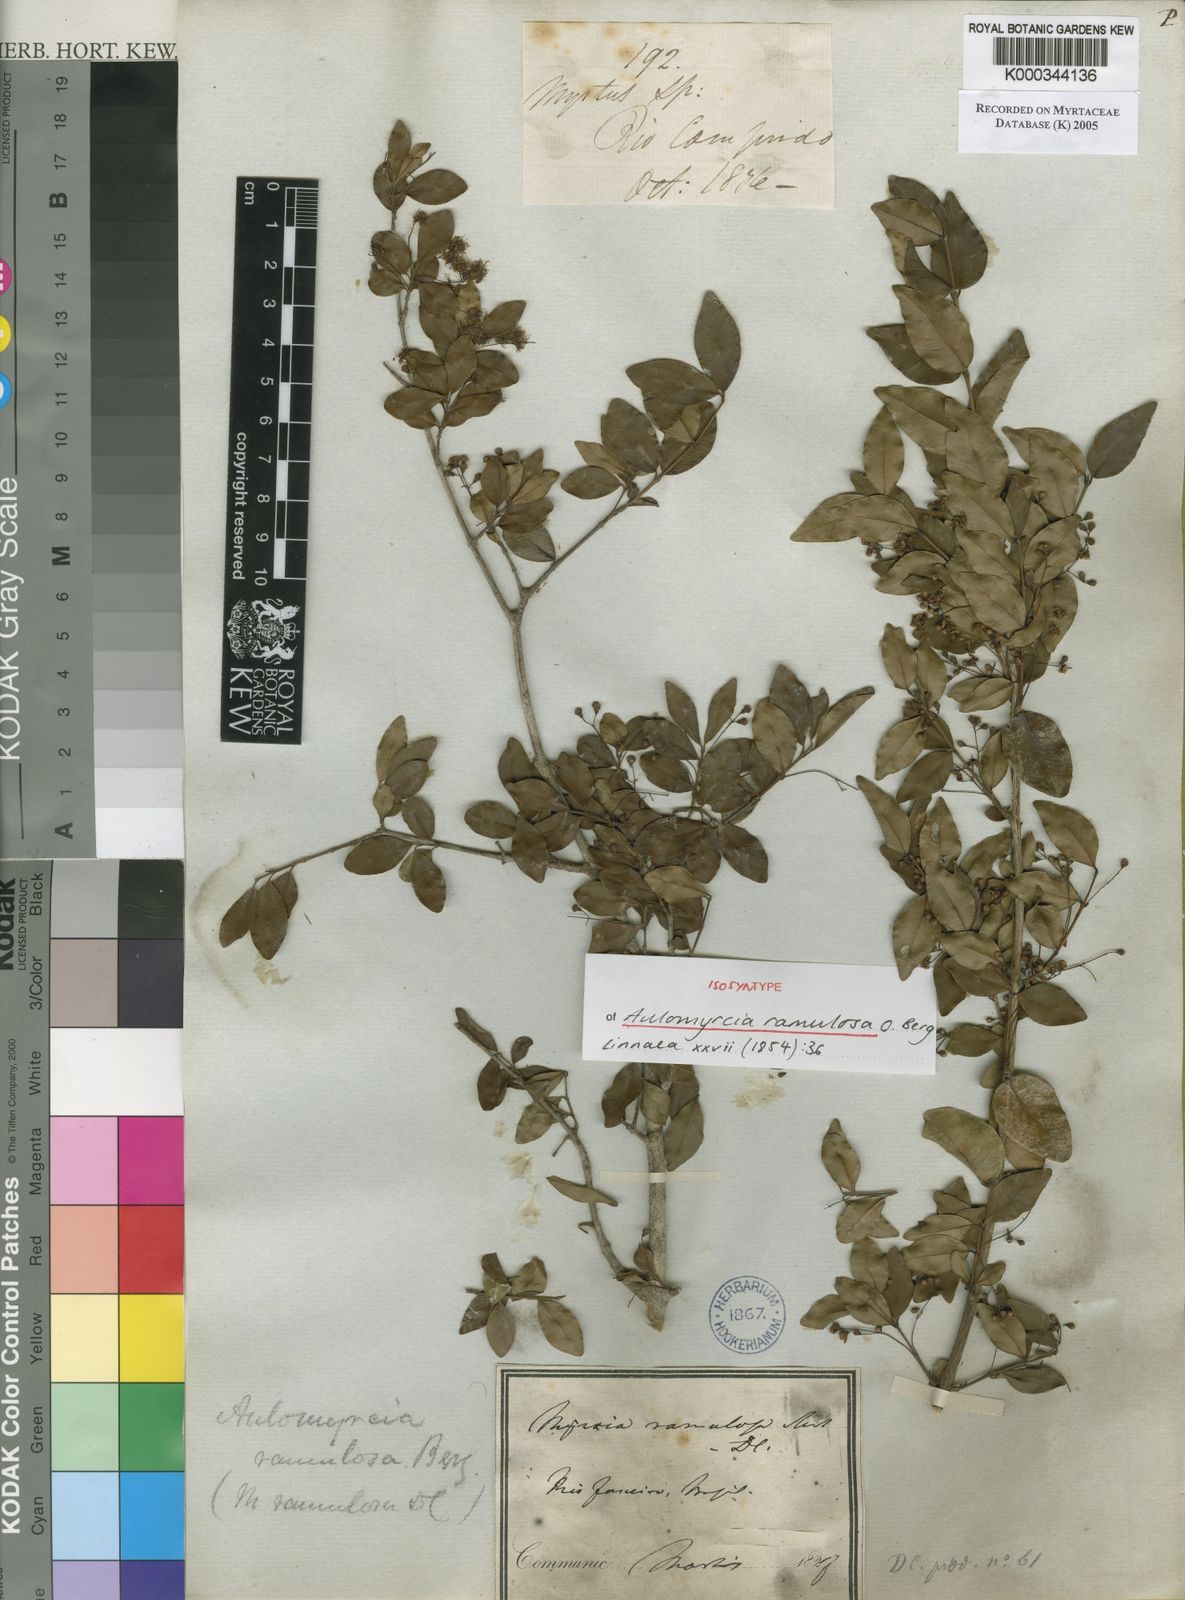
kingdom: Plantae
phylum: Tracheophyta
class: Magnoliopsida
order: Myrtales
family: Myrtaceae
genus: Myrcia
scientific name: Myrcia selloi
